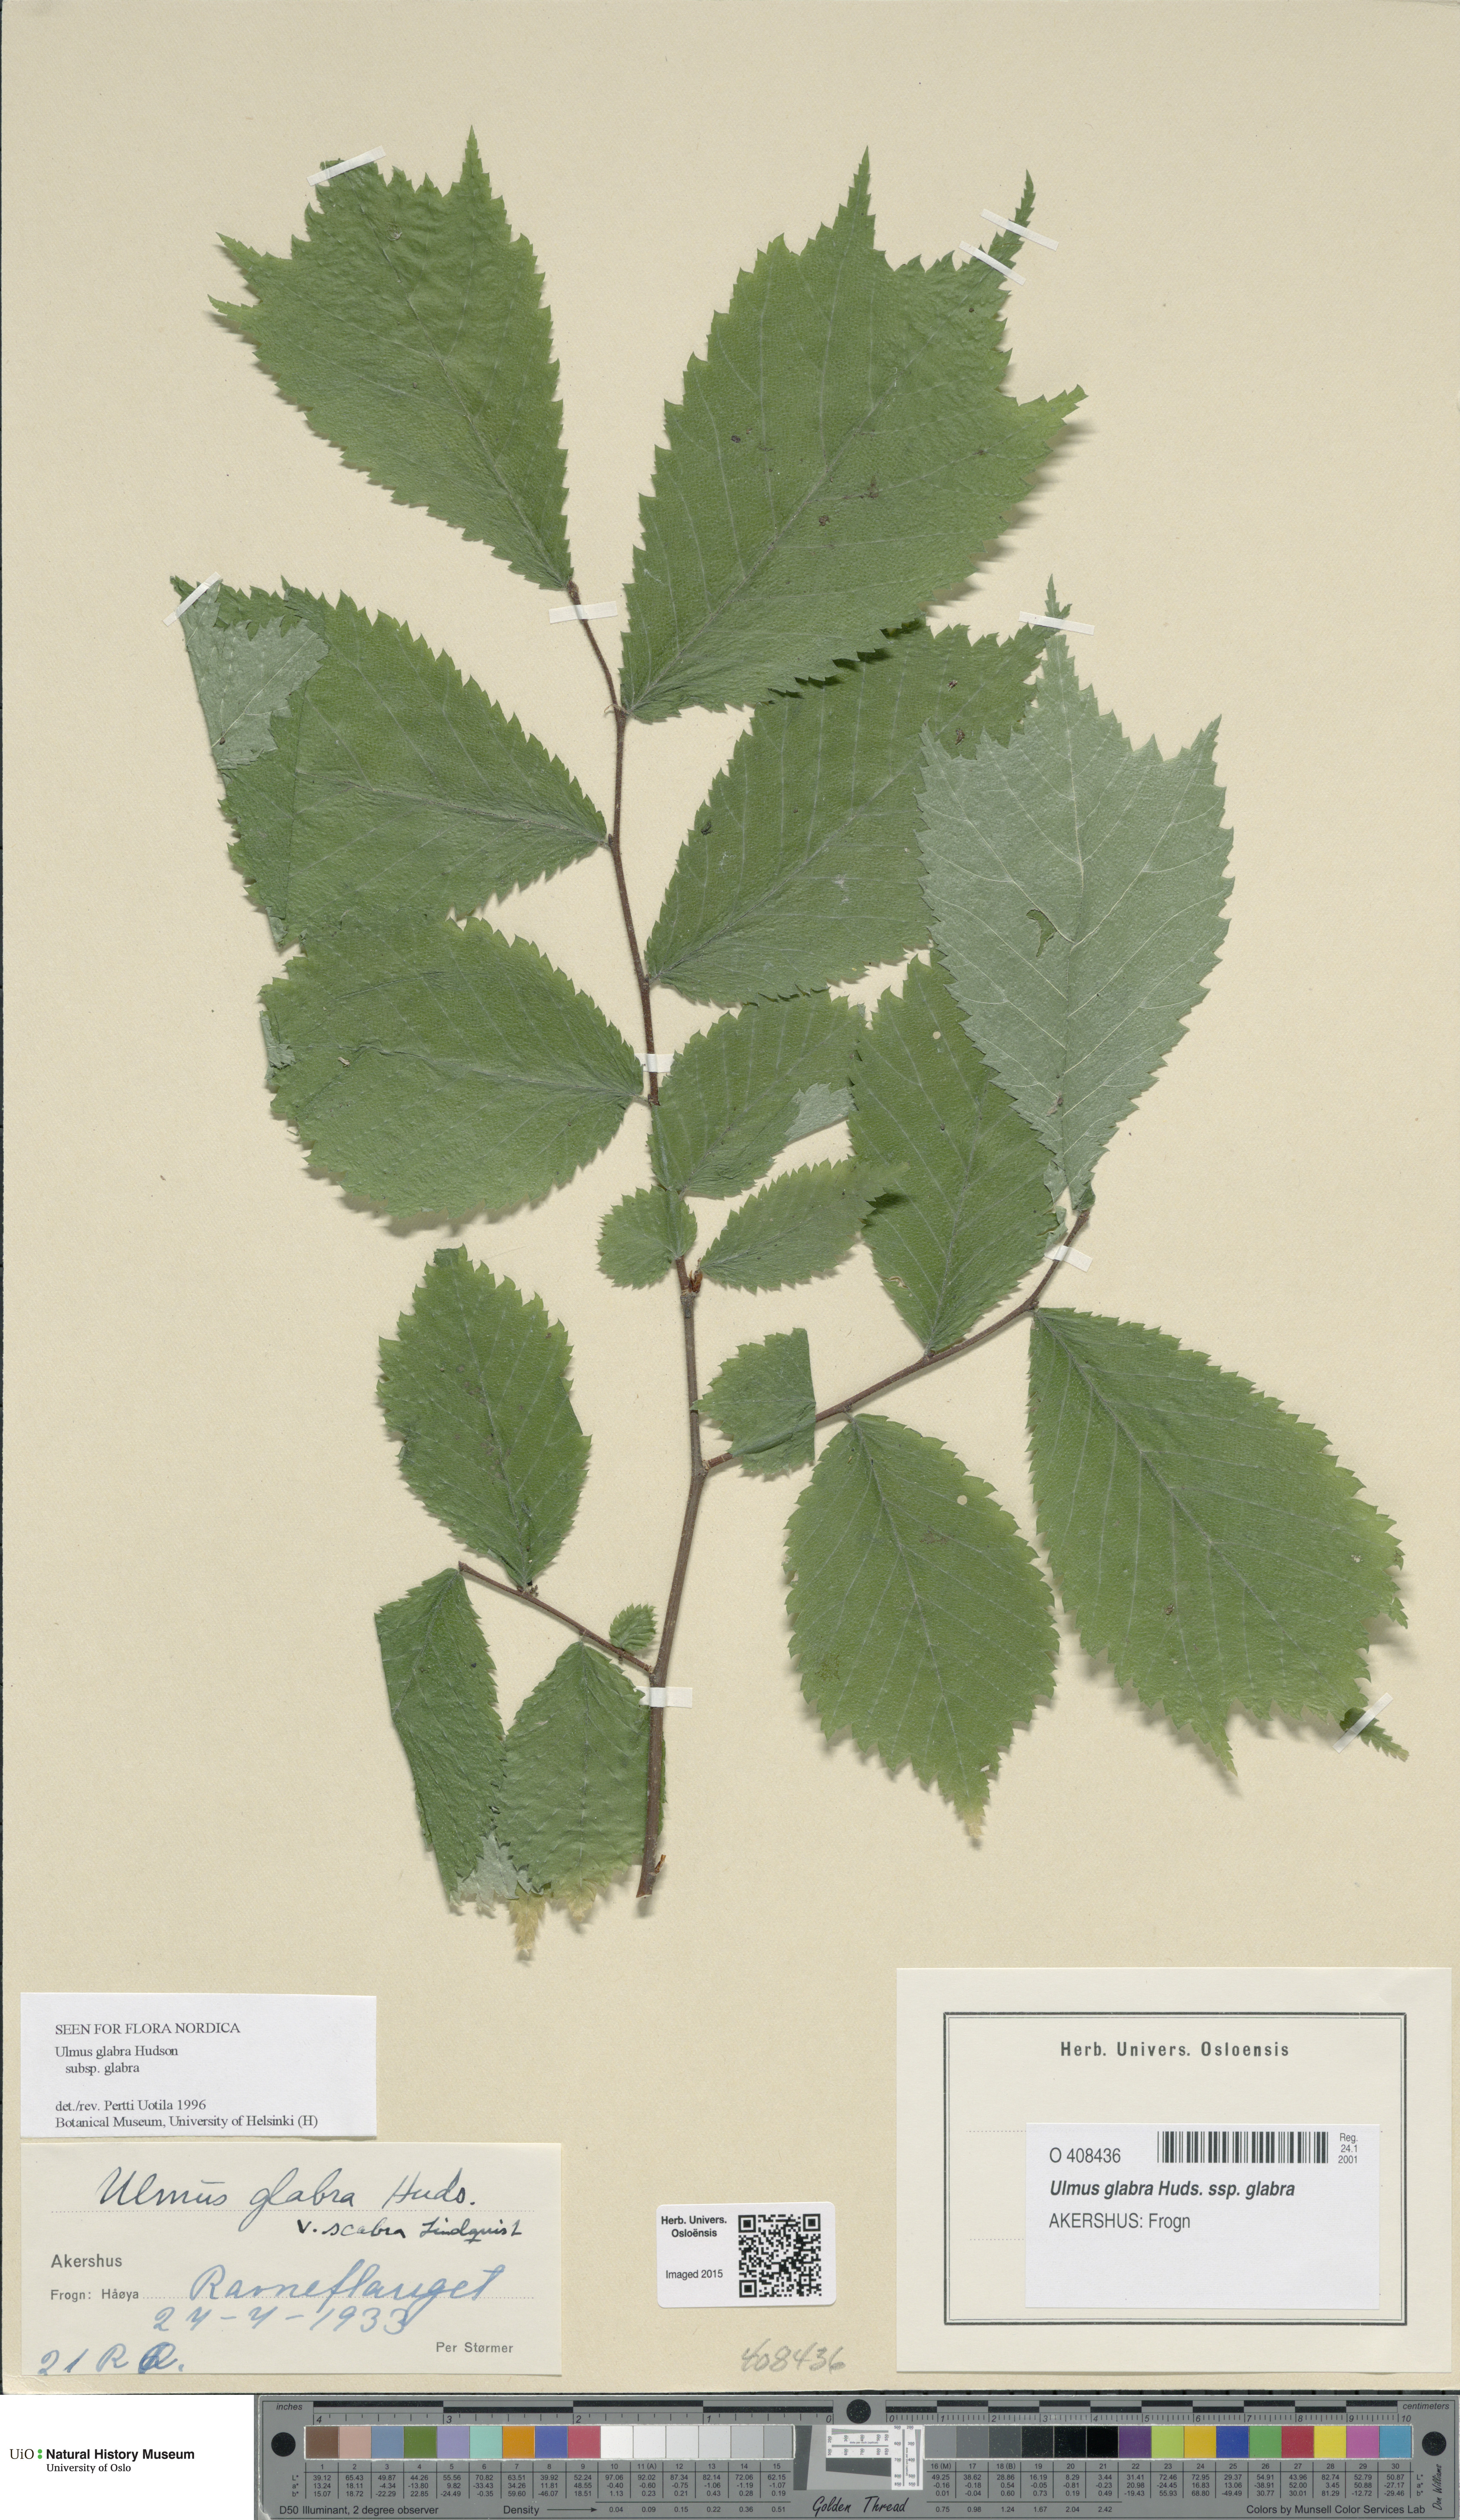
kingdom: Plantae
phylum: Tracheophyta
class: Magnoliopsida
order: Rosales
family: Ulmaceae
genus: Ulmus
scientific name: Ulmus glabra
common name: Wych elm
